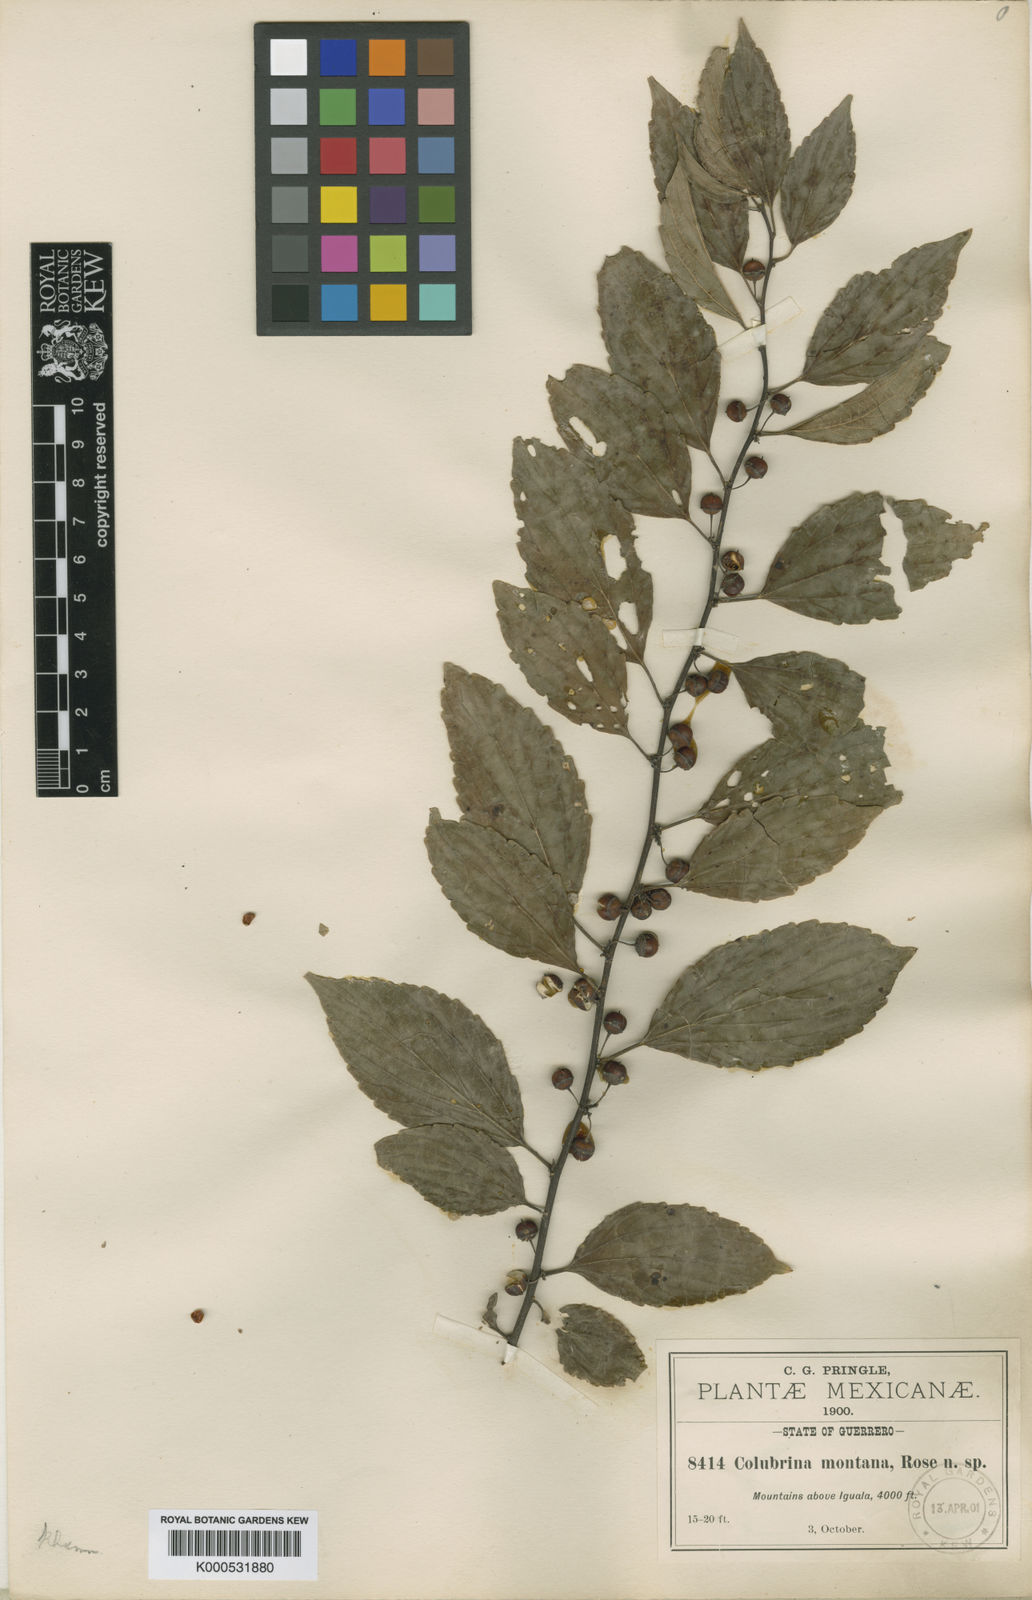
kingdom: Plantae
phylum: Tracheophyta
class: Magnoliopsida
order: Rosales
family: Rhamnaceae
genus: Colubrina
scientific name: Colubrina
